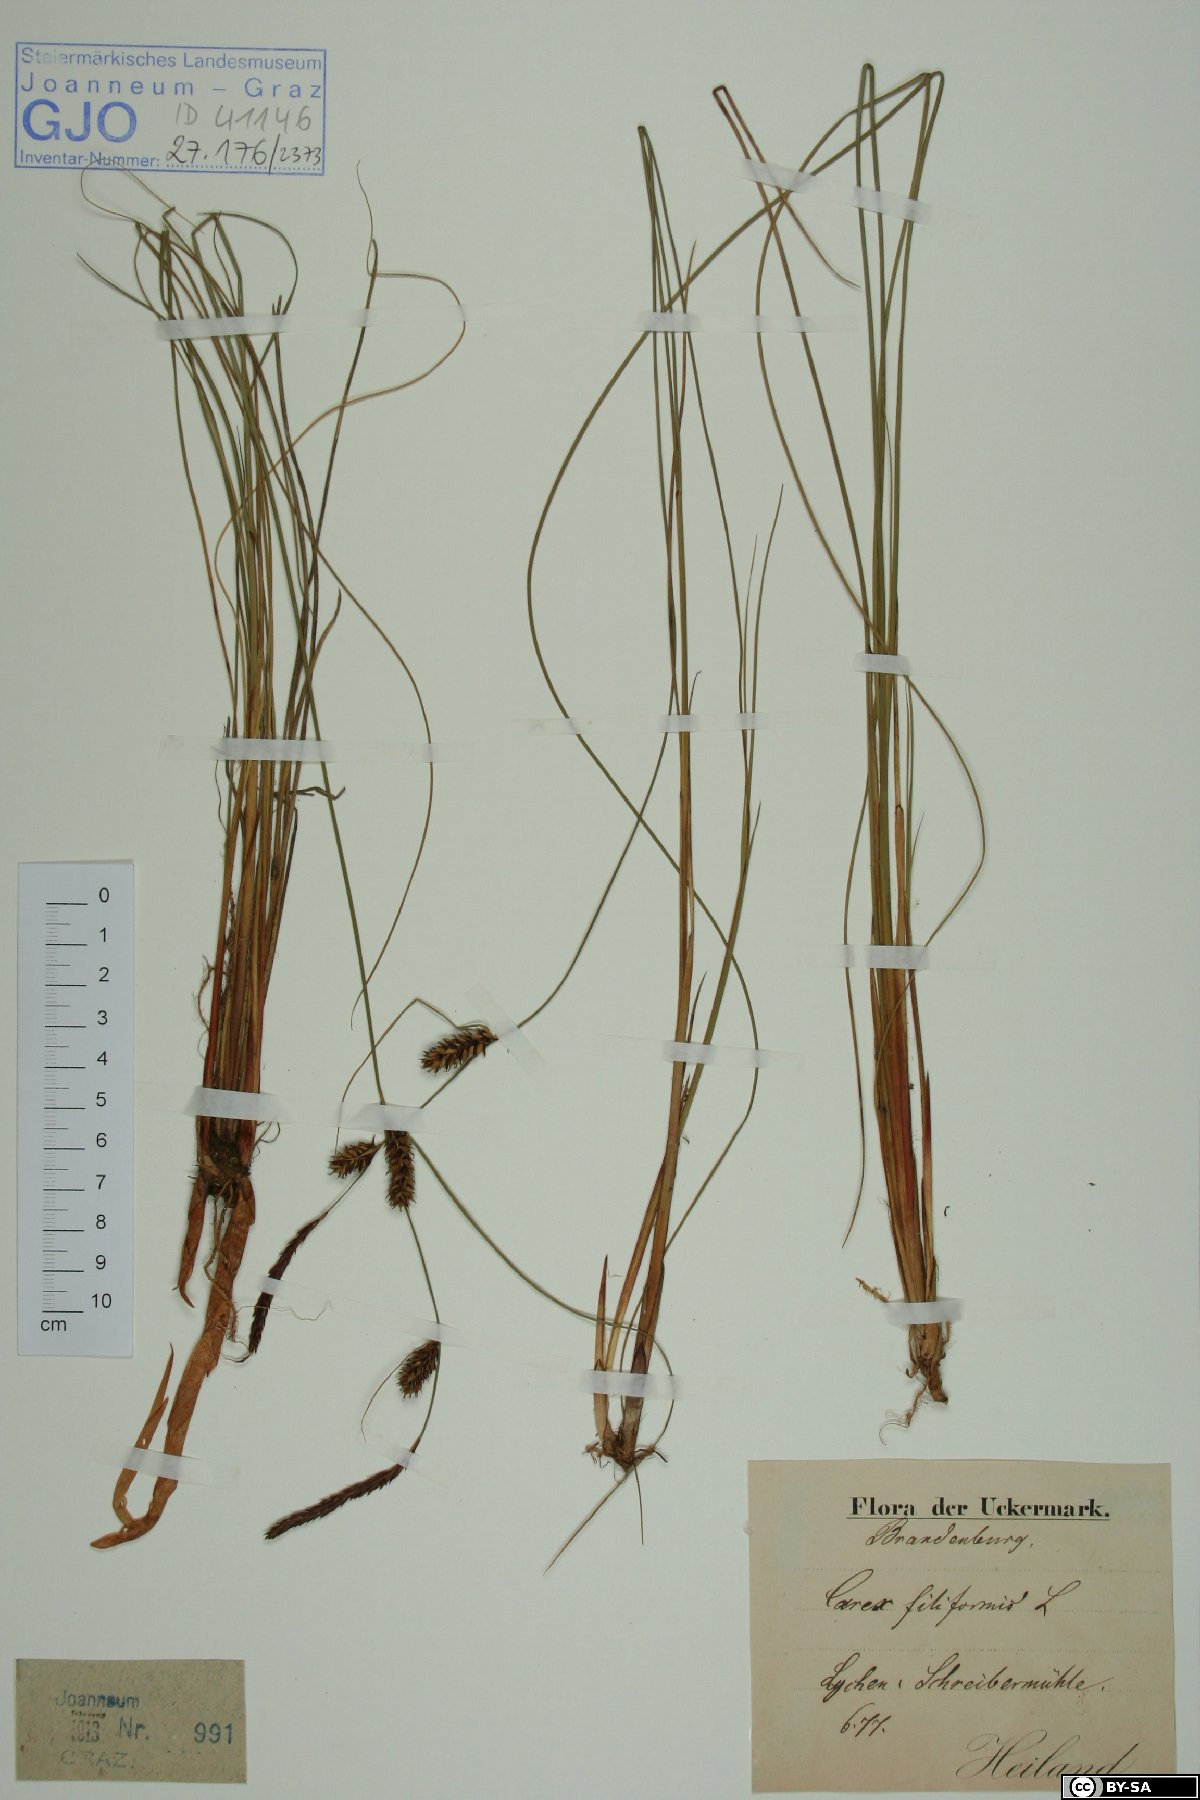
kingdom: Plantae
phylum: Tracheophyta
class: Liliopsida
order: Poales
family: Cyperaceae
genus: Carex
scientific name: Carex montana
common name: Soft-leaved sedge
